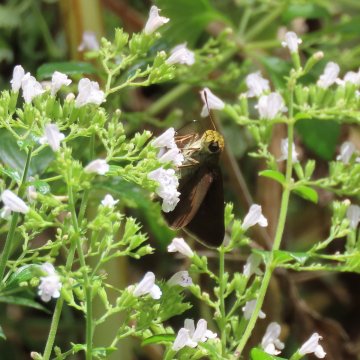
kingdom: Animalia
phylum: Arthropoda
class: Insecta
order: Lepidoptera
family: Hesperiidae
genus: Euphyes
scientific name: Euphyes vestris
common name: Dun Skipper
